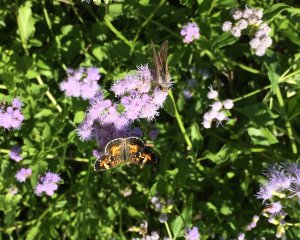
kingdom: Animalia
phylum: Arthropoda
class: Insecta
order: Lepidoptera
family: Nymphalidae
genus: Phyciodes
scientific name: Phyciodes phaon
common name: Phaon Crescent
